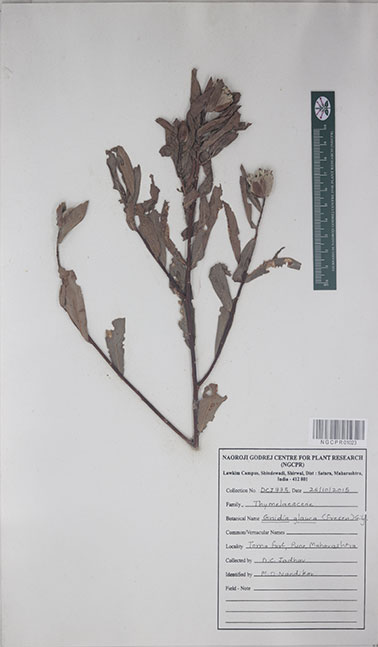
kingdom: Plantae
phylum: Tracheophyta
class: Magnoliopsida
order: Malvales
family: Thymelaeaceae
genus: Gnidia
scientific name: Gnidia glauca
